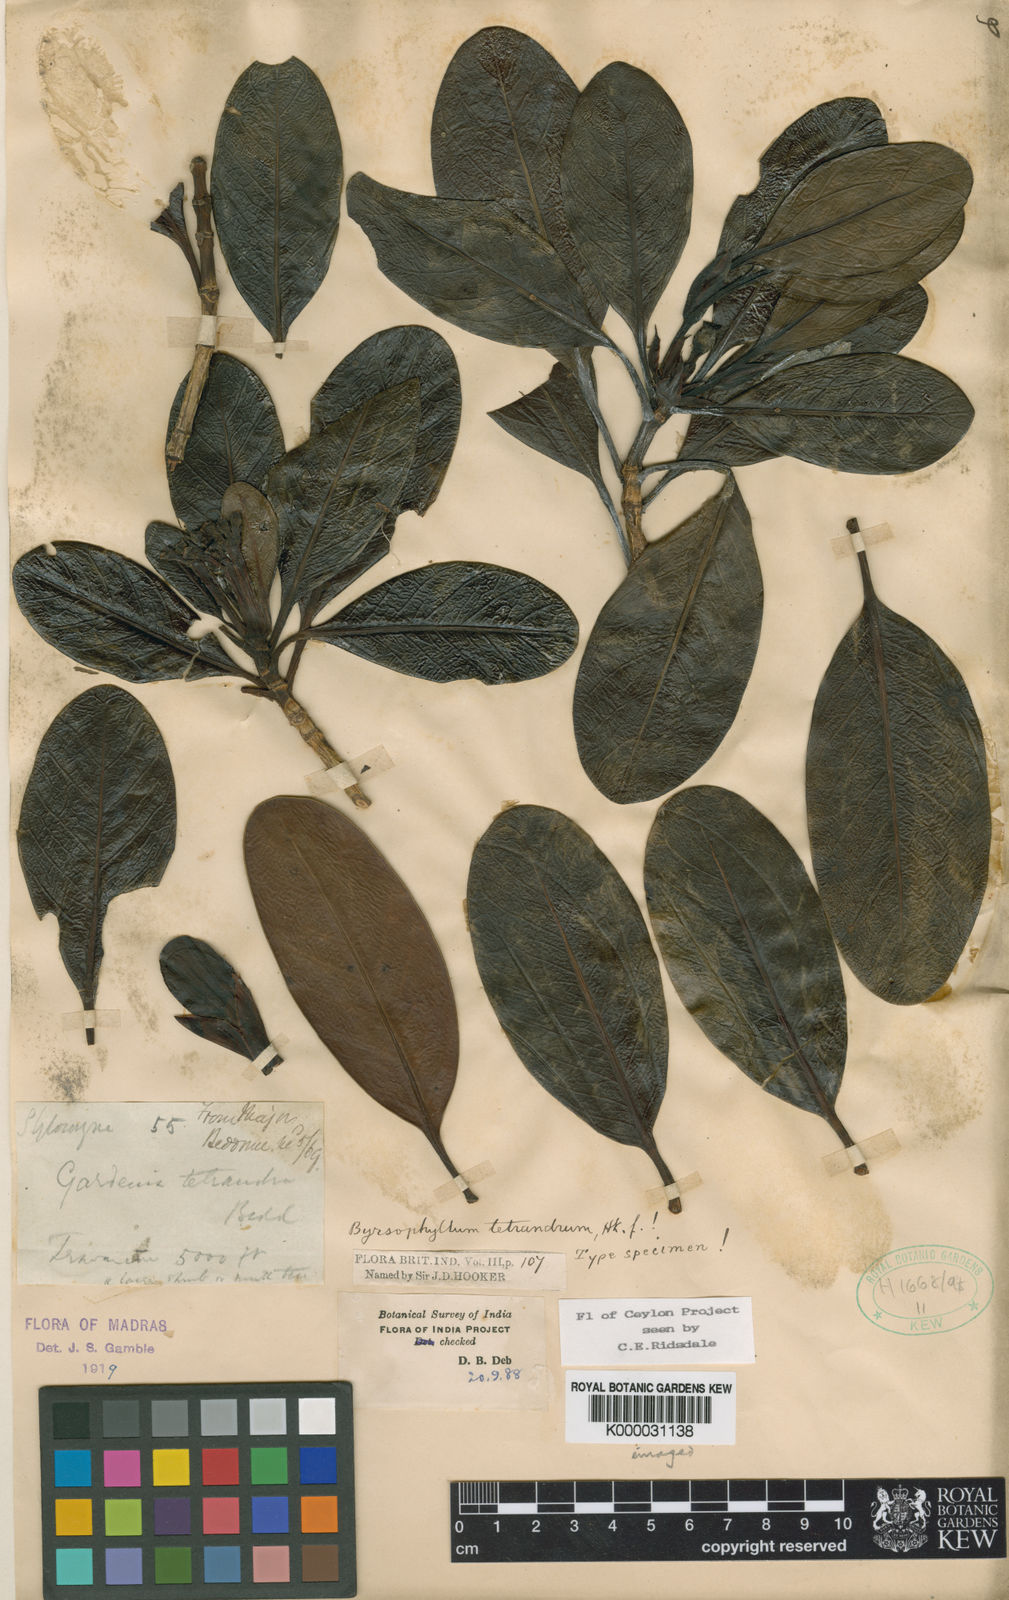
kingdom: Plantae
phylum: Tracheophyta
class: Magnoliopsida
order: Gentianales
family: Rubiaceae
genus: Byrsophyllum
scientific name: Byrsophyllum
